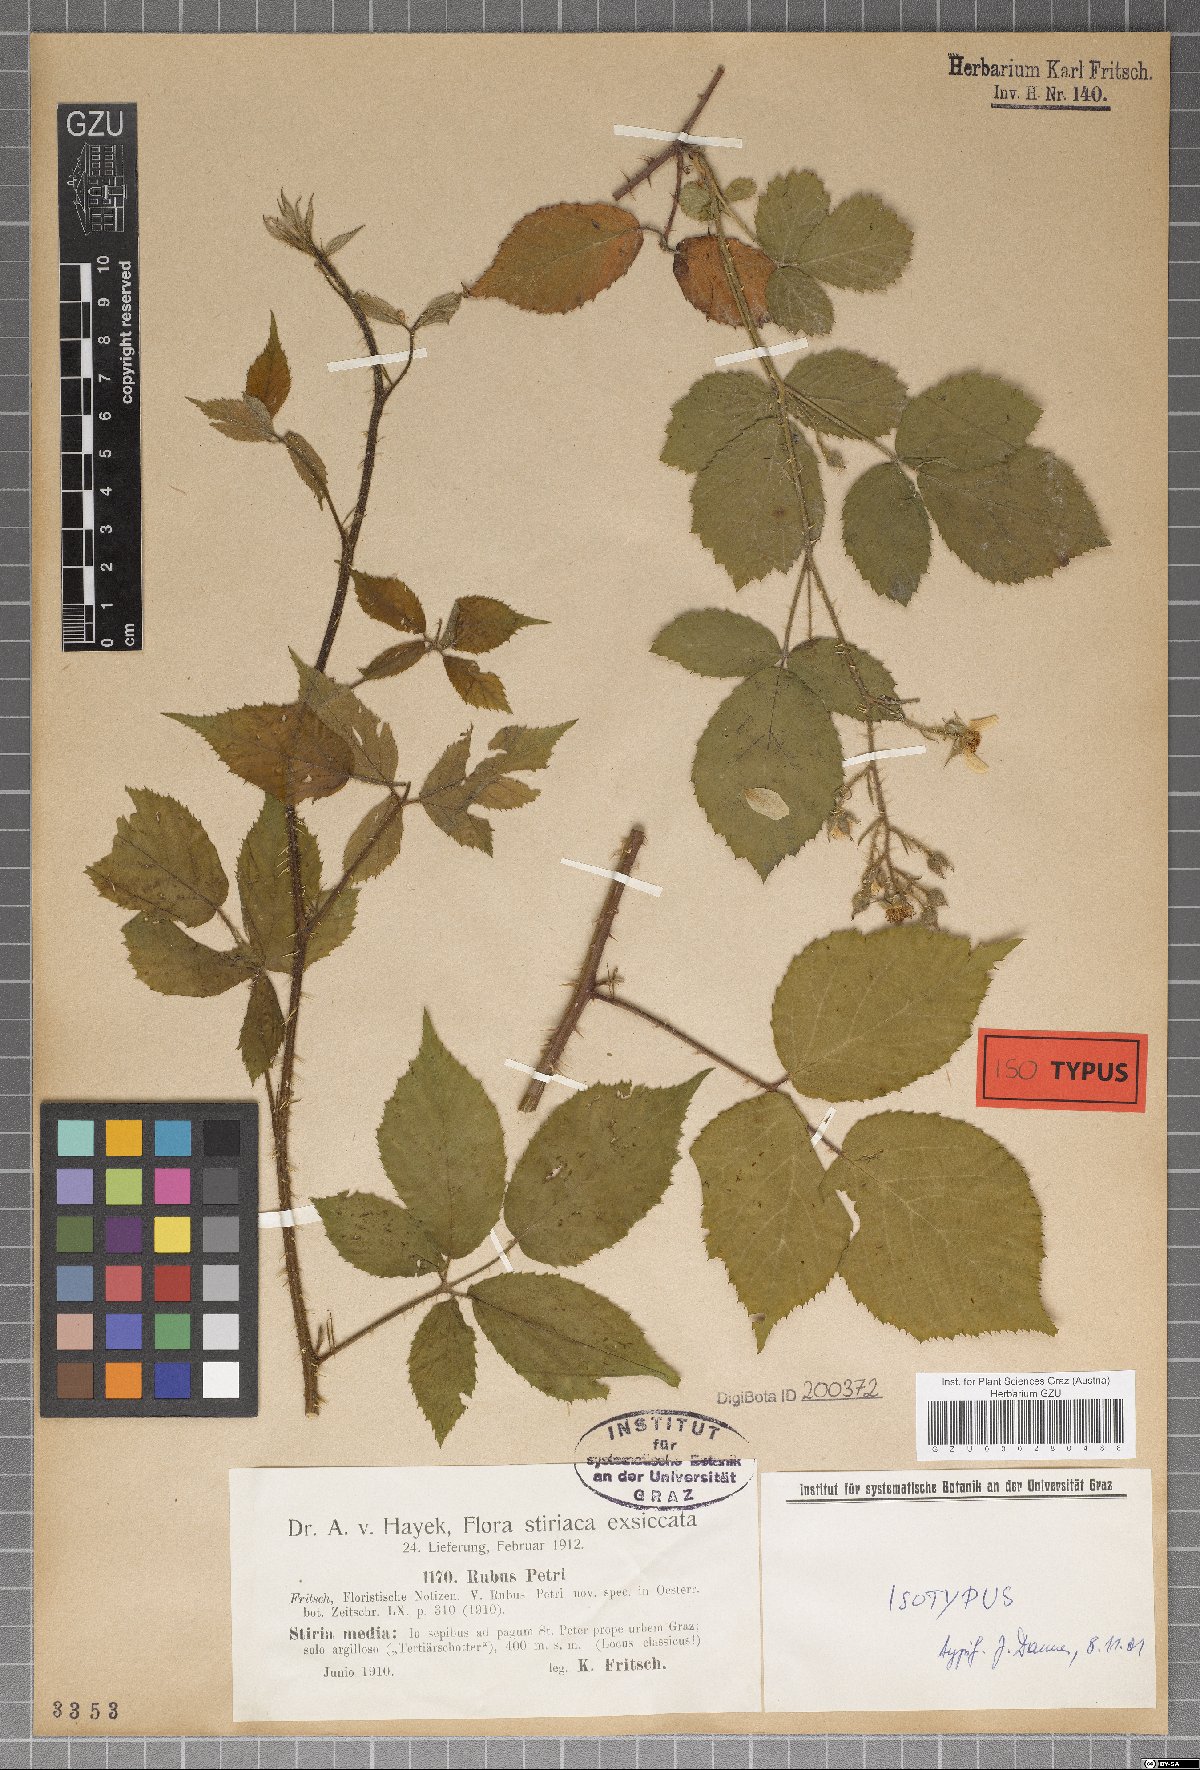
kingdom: Plantae
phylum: Tracheophyta
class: Magnoliopsida
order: Rosales
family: Rosaceae
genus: Rubus
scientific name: Rubus petri
